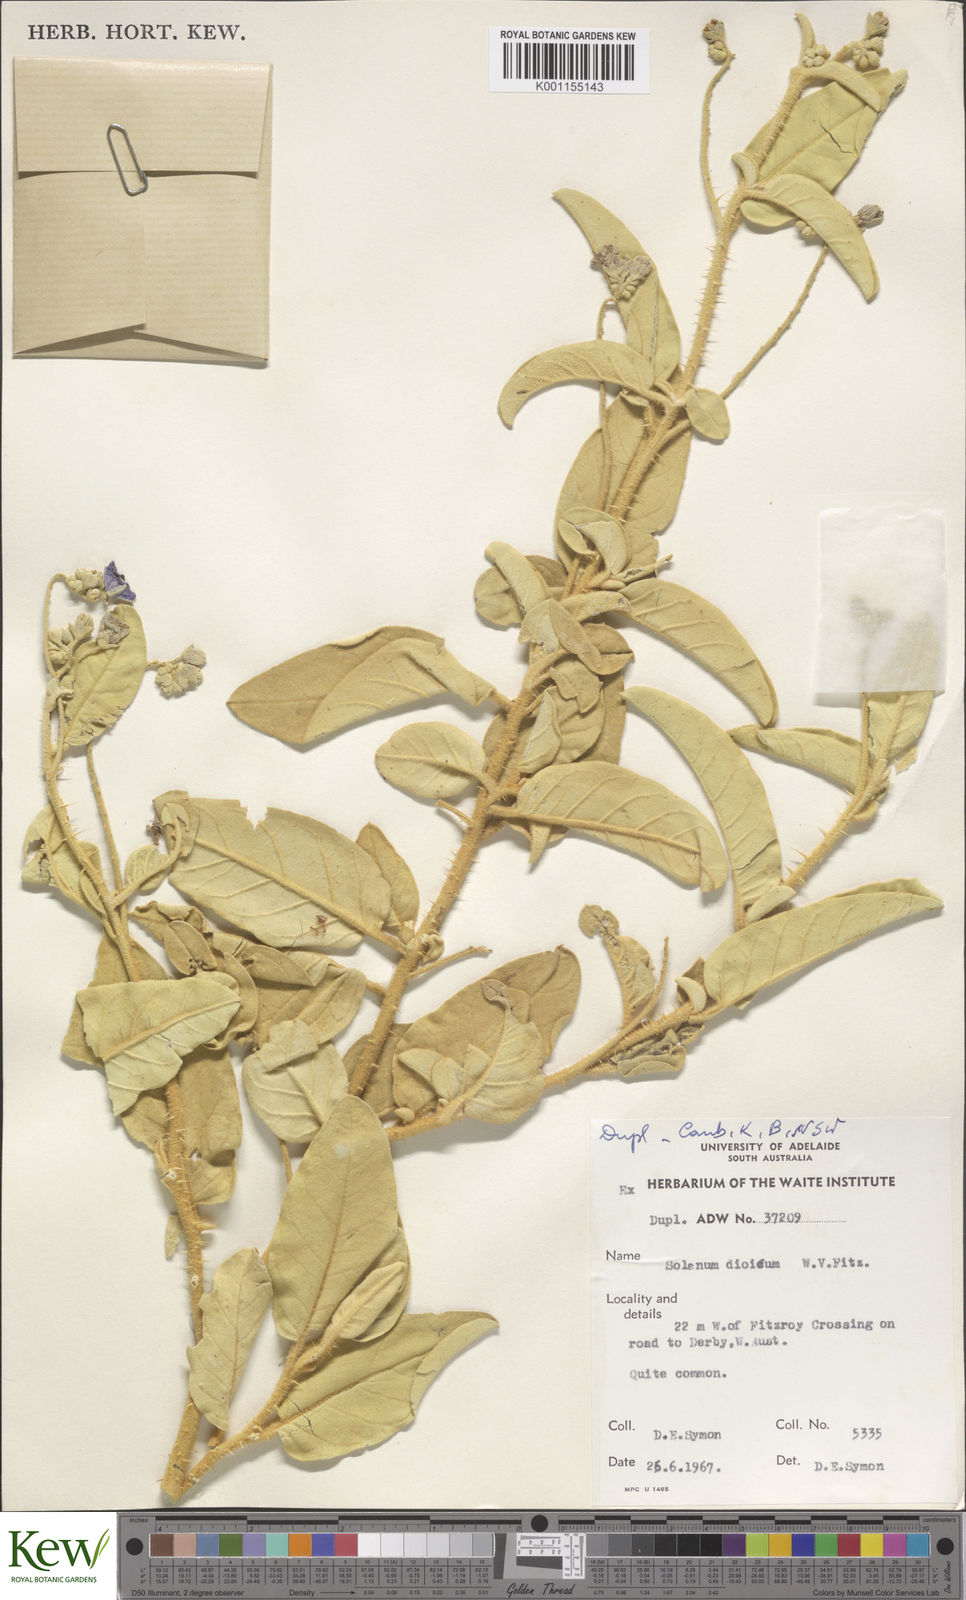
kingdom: Plantae
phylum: Tracheophyta
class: Magnoliopsida
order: Solanales
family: Solanaceae
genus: Solanum
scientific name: Solanum dioicum
